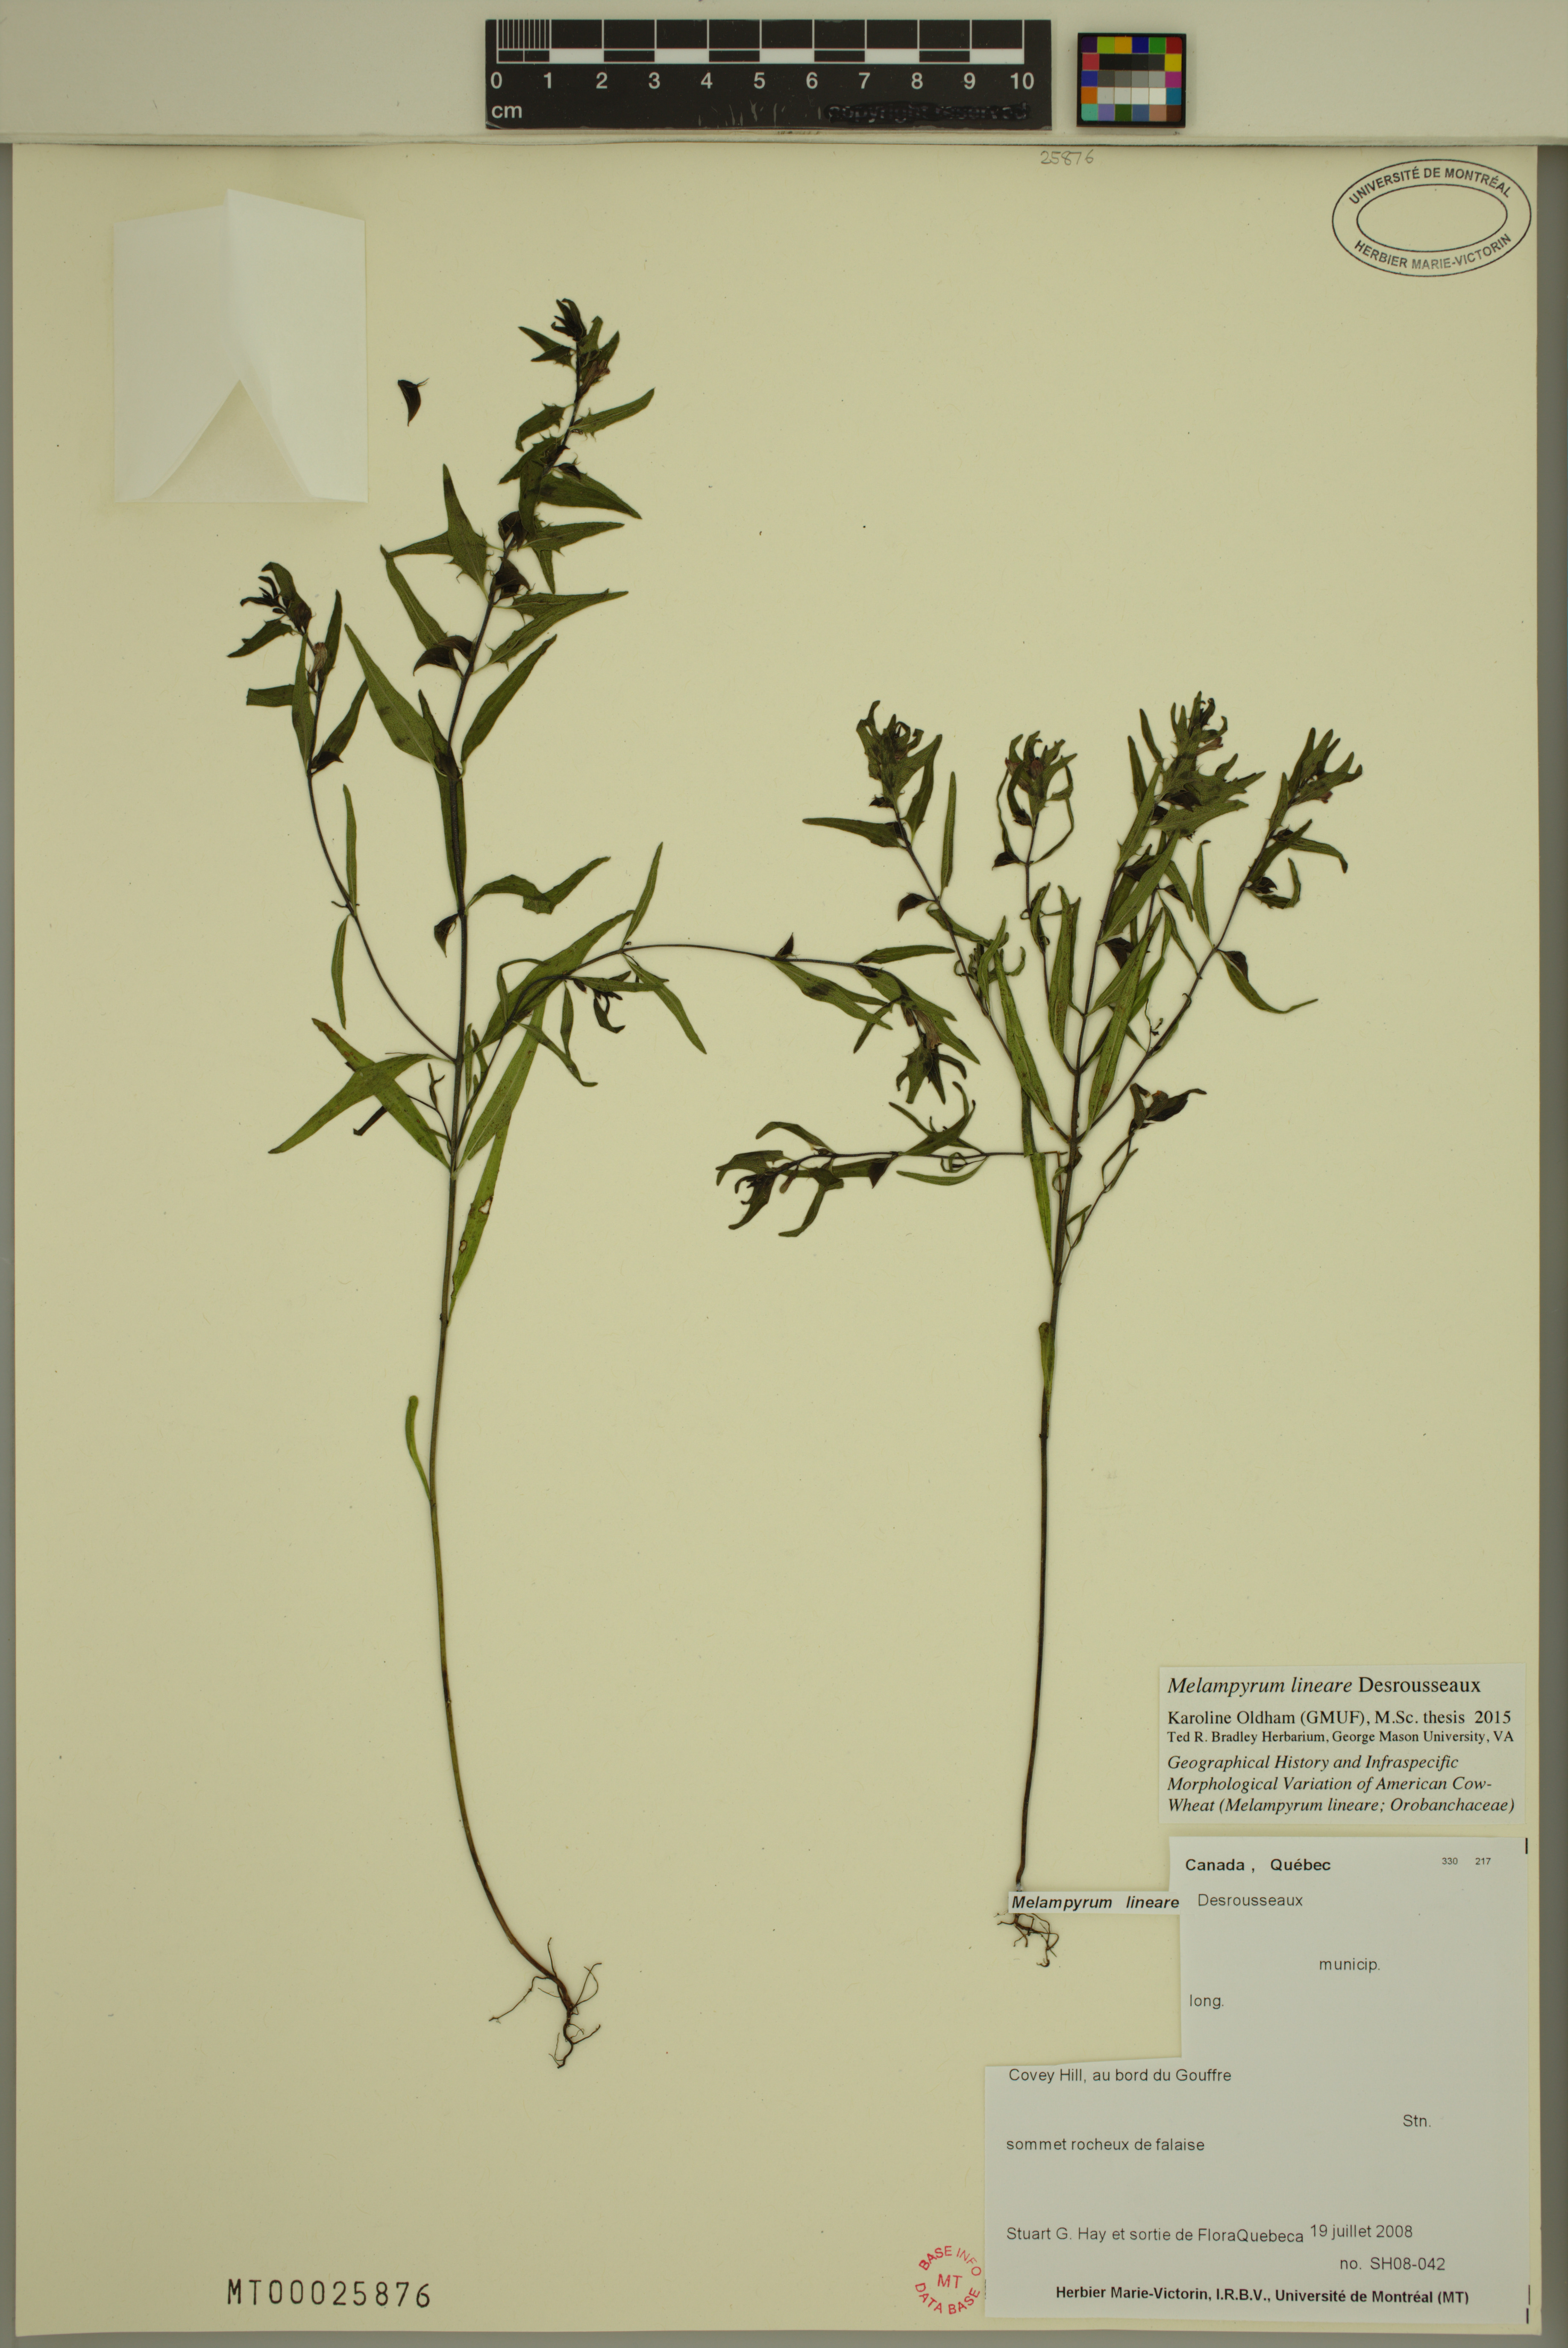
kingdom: Plantae
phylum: Tracheophyta
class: Magnoliopsida
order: Lamiales
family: Orobanchaceae
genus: Melampyrum
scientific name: Melampyrum lineare
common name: American cow-wheat
